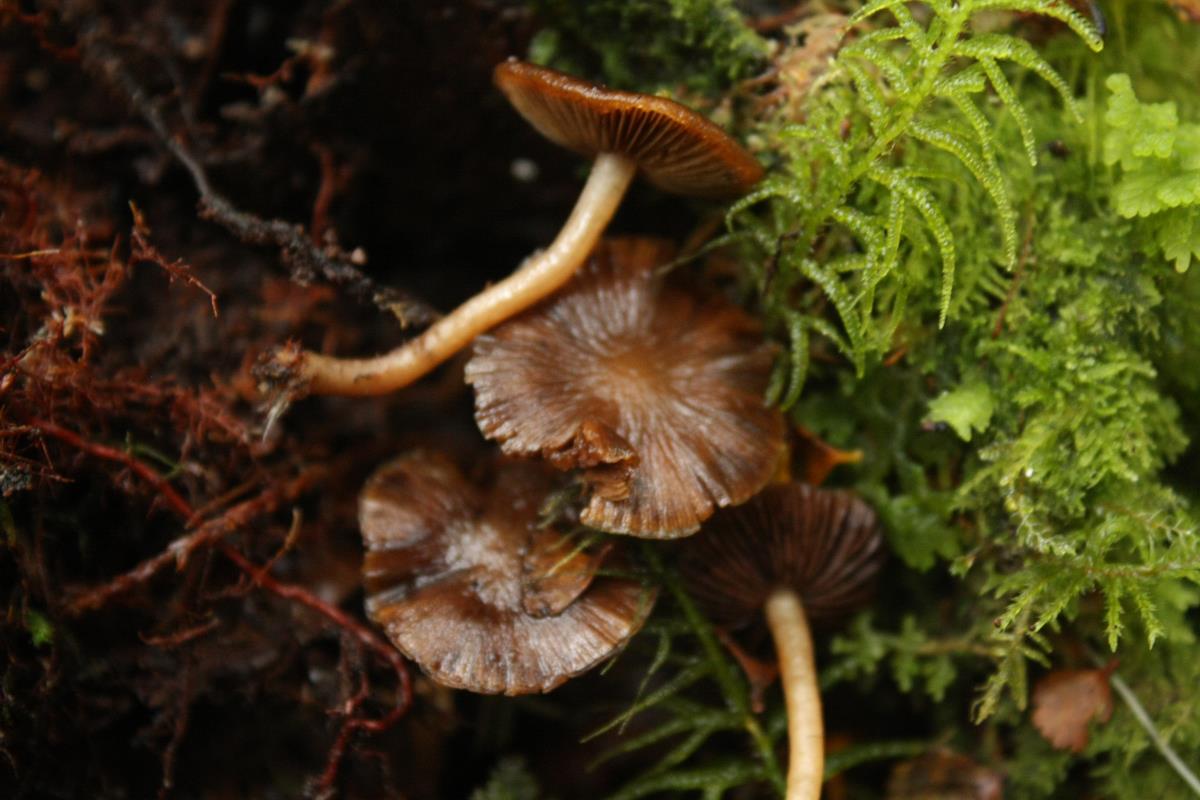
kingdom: Fungi
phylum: Basidiomycota
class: Agaricomycetes
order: Agaricales
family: Psathyrellaceae
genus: Psathyrella
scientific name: Psathyrella echinata
